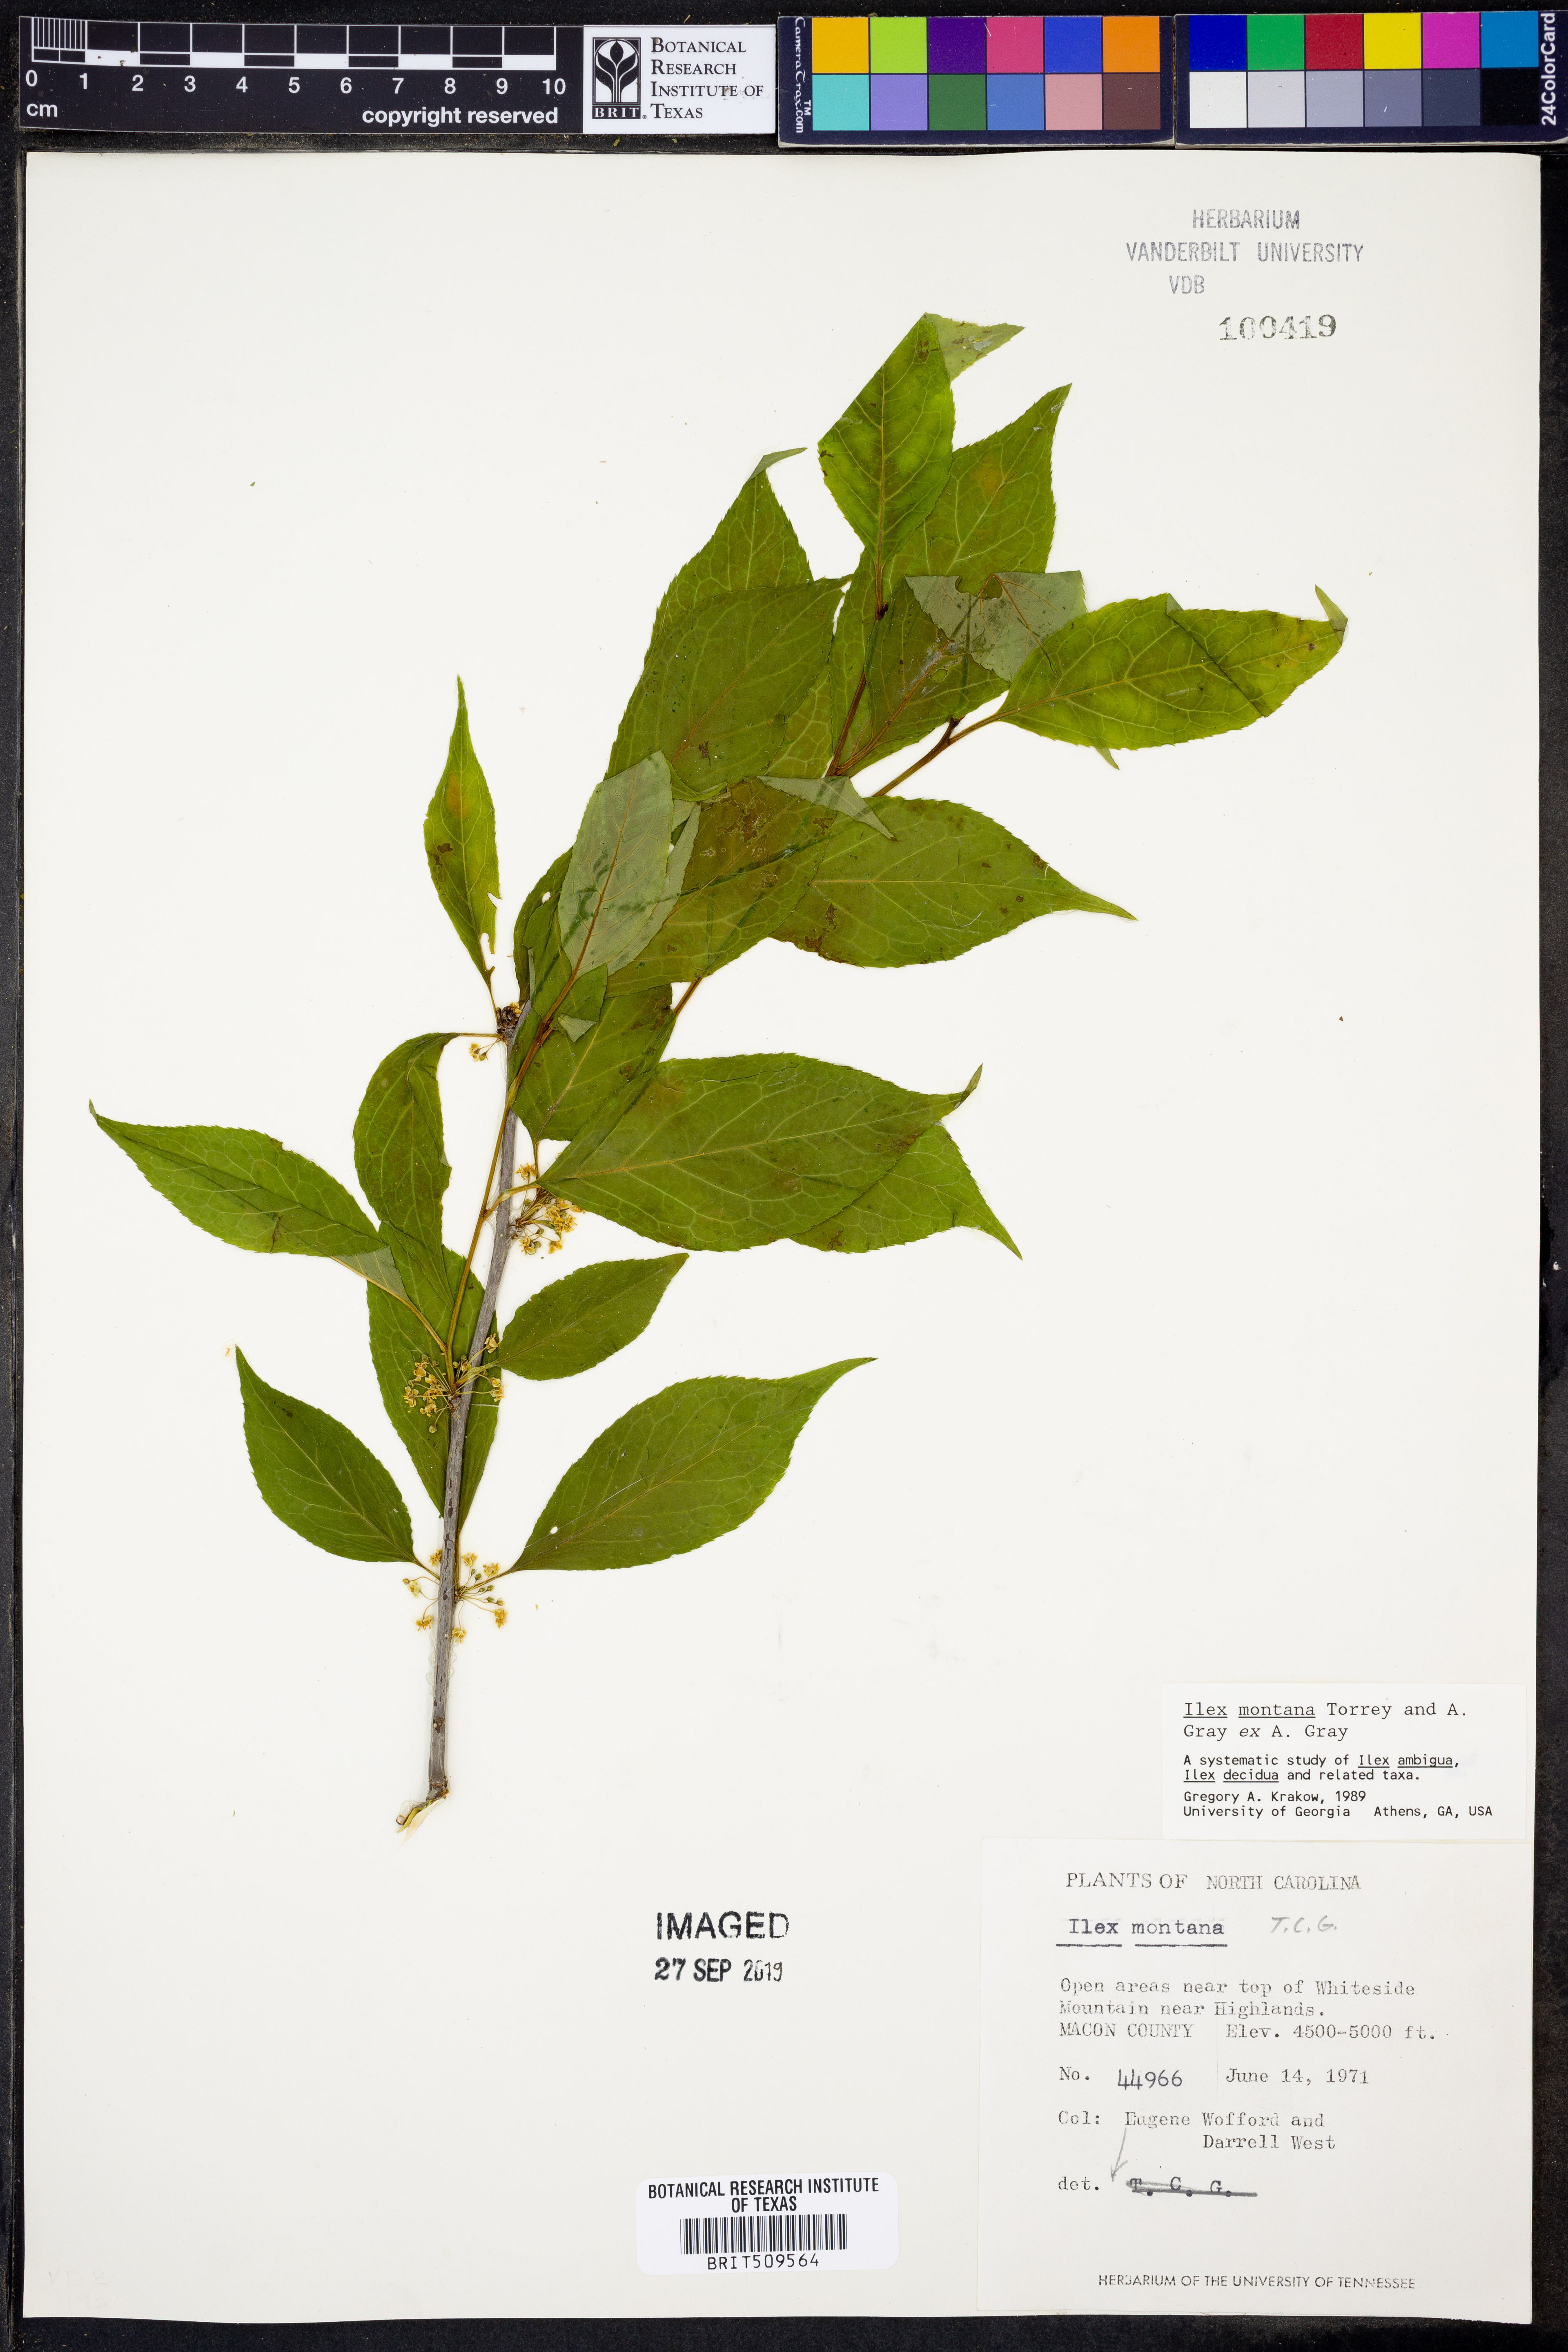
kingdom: Plantae
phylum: Tracheophyta
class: Magnoliopsida
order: Aquifoliales
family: Aquifoliaceae
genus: Ilex
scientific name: Ilex montana
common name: Mountain winterberry
